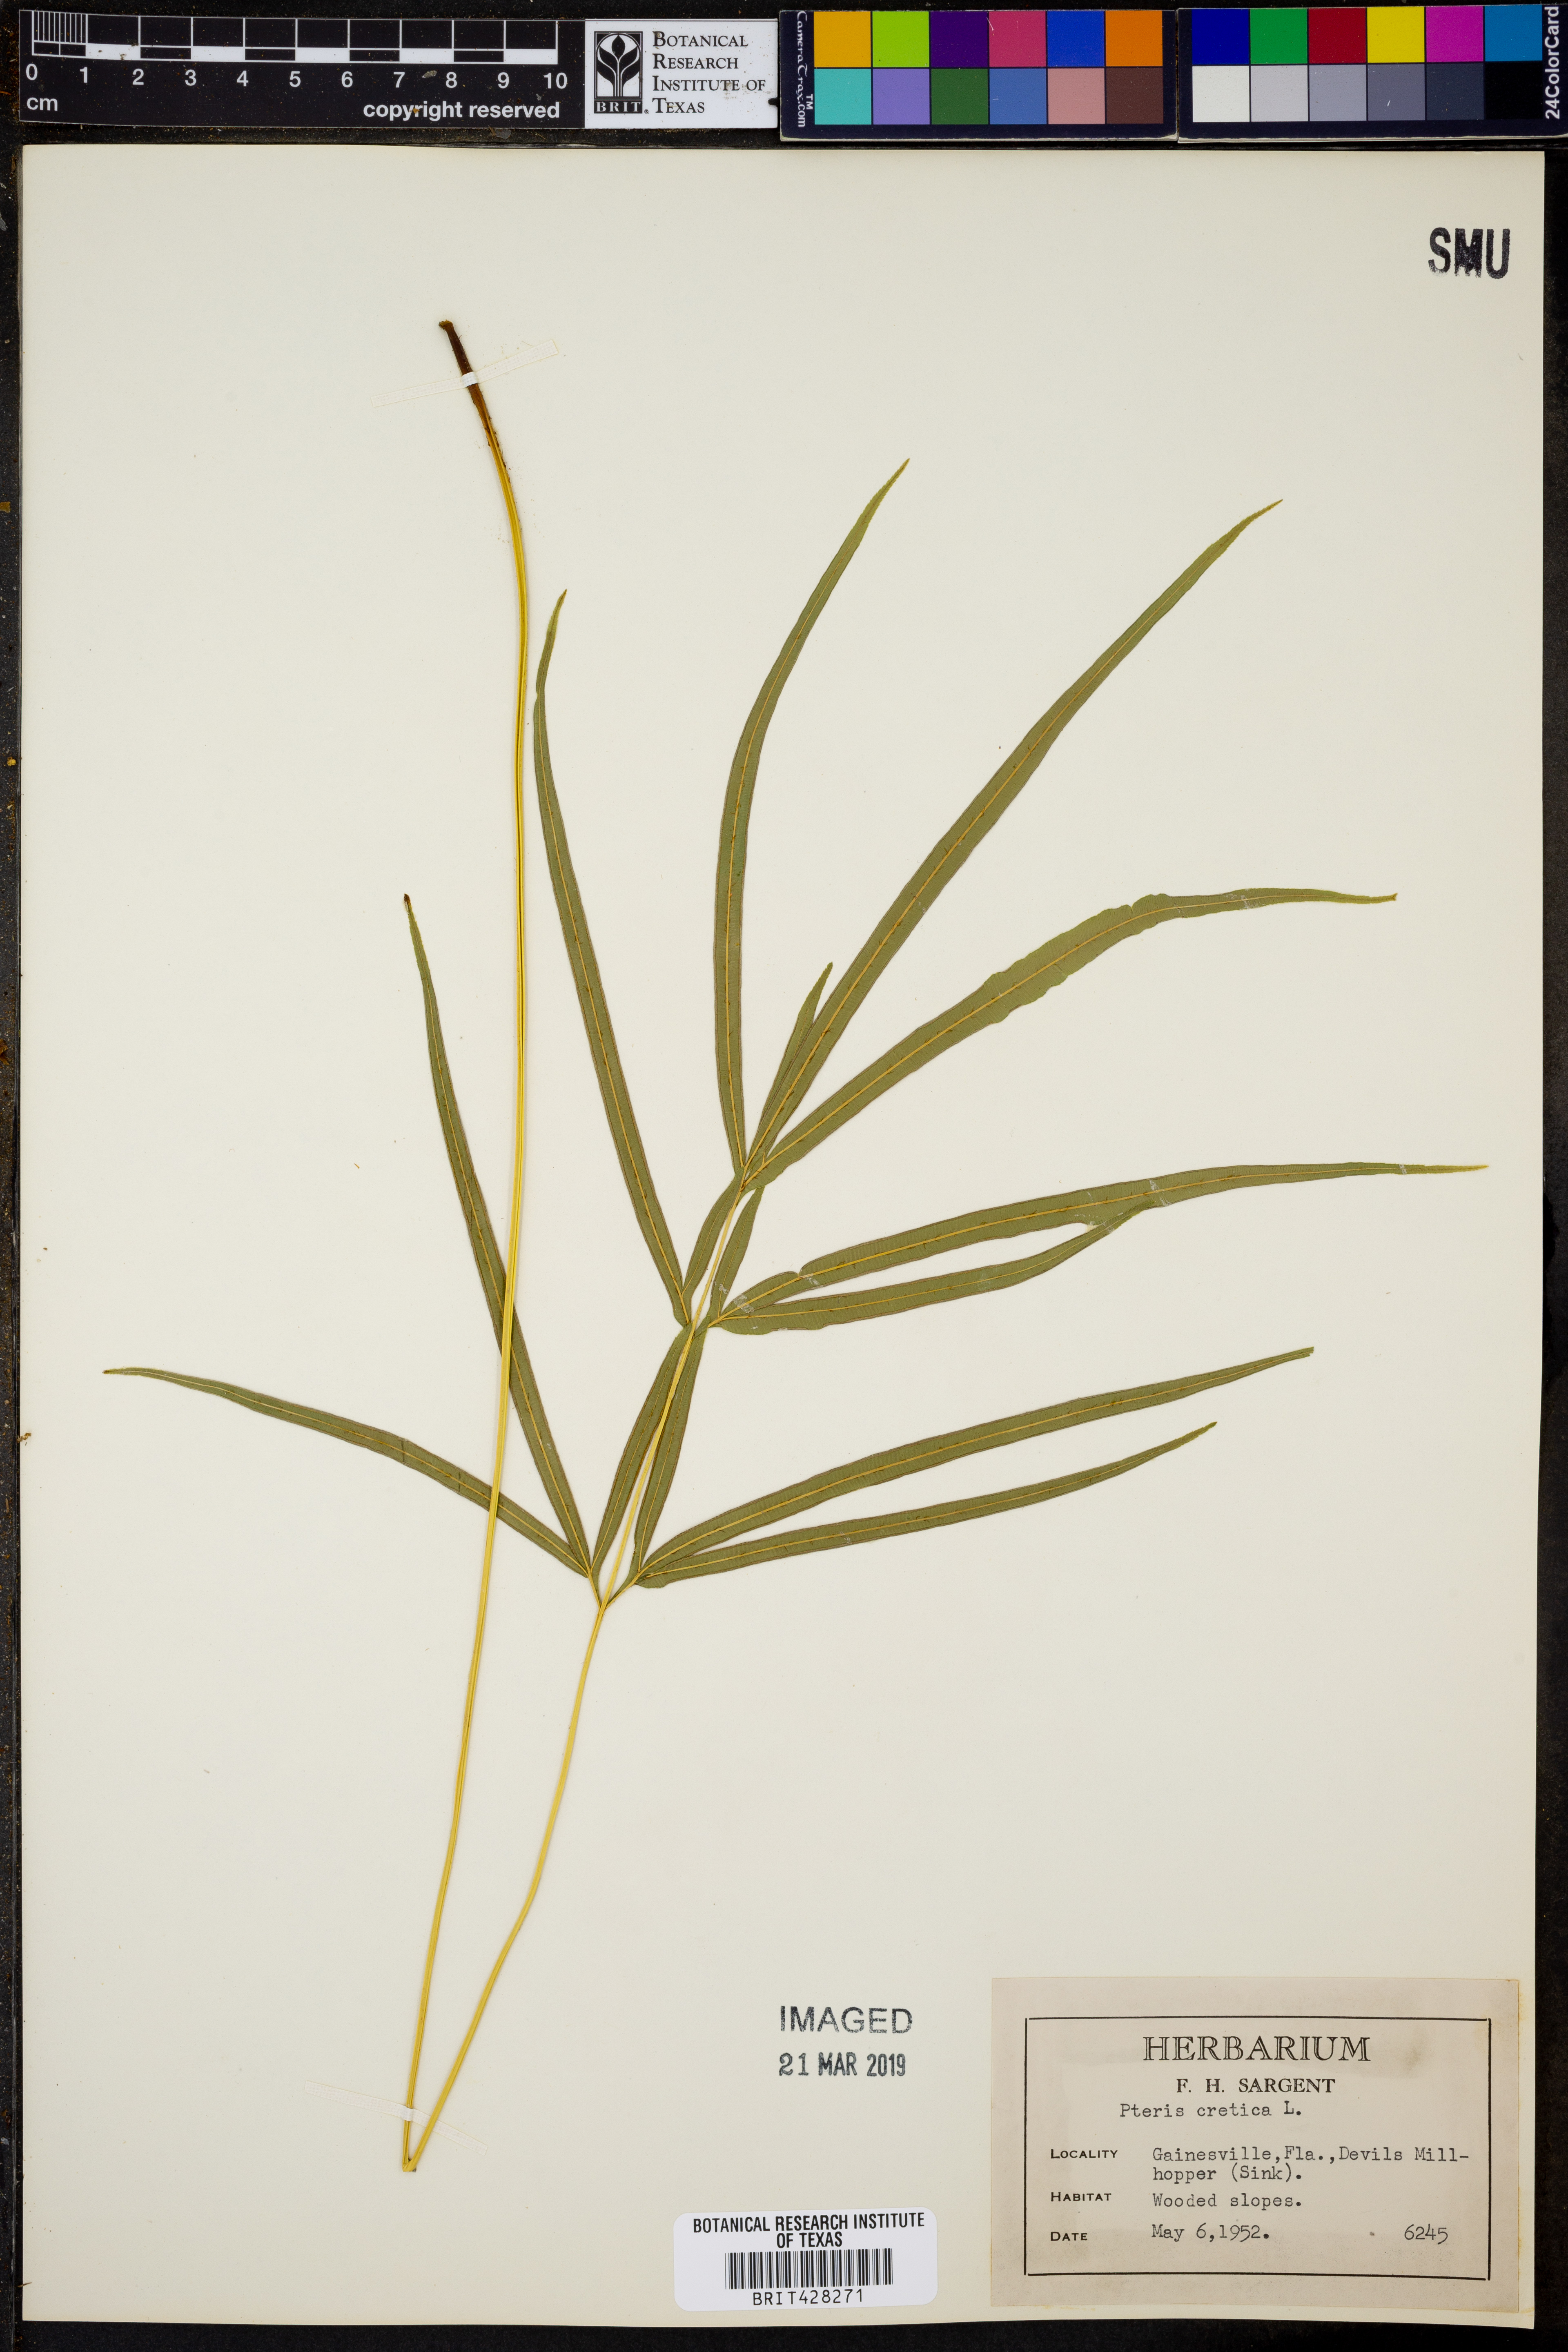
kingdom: Plantae
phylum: Tracheophyta
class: Polypodiopsida
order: Polypodiales
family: Pteridaceae
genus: Pteris
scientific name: Pteris cretica
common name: Ribbon fern
